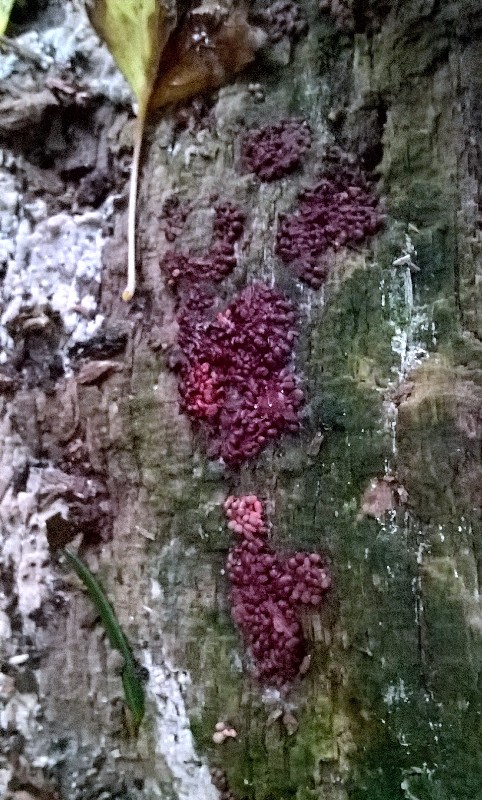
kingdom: Fungi
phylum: Ascomycota
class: Leotiomycetes
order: Helotiales
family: Gelatinodiscaceae
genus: Ascocoryne
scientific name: Ascocoryne sarcoides
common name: rødlilla sejskive
